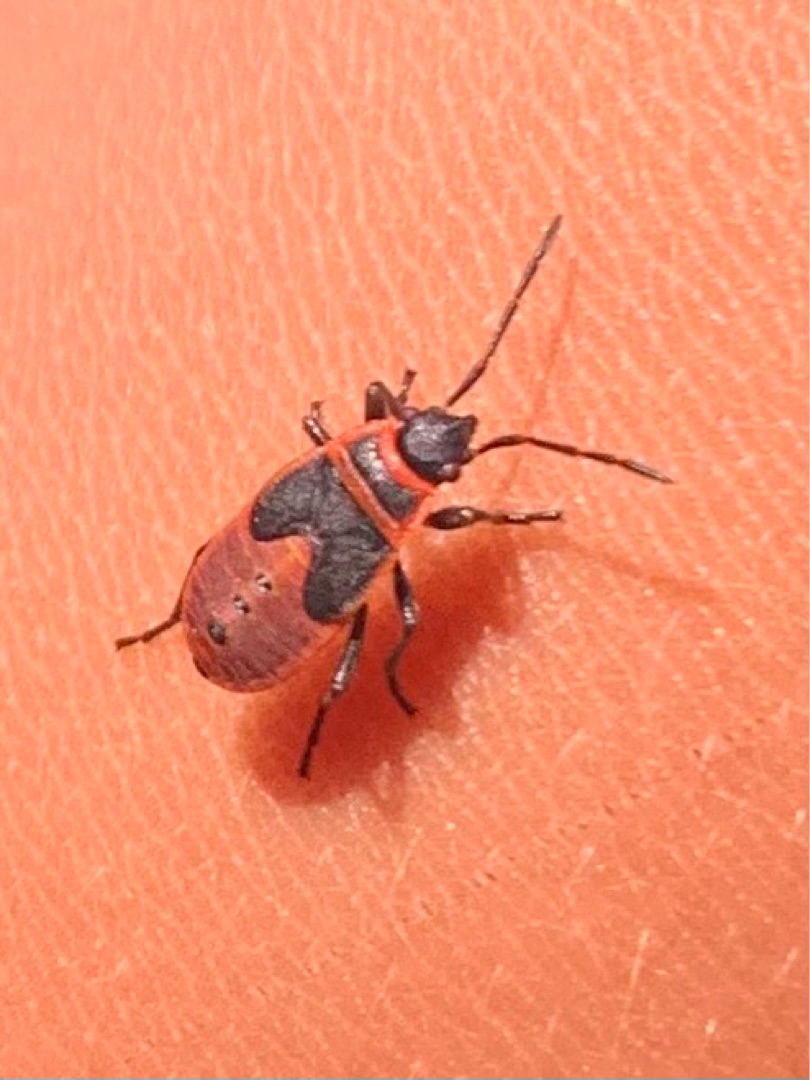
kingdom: Animalia
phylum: Arthropoda
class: Insecta
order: Hemiptera
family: Pyrrhocoridae
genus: Pyrrhocoris
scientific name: Pyrrhocoris apterus
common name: Ildtæge
